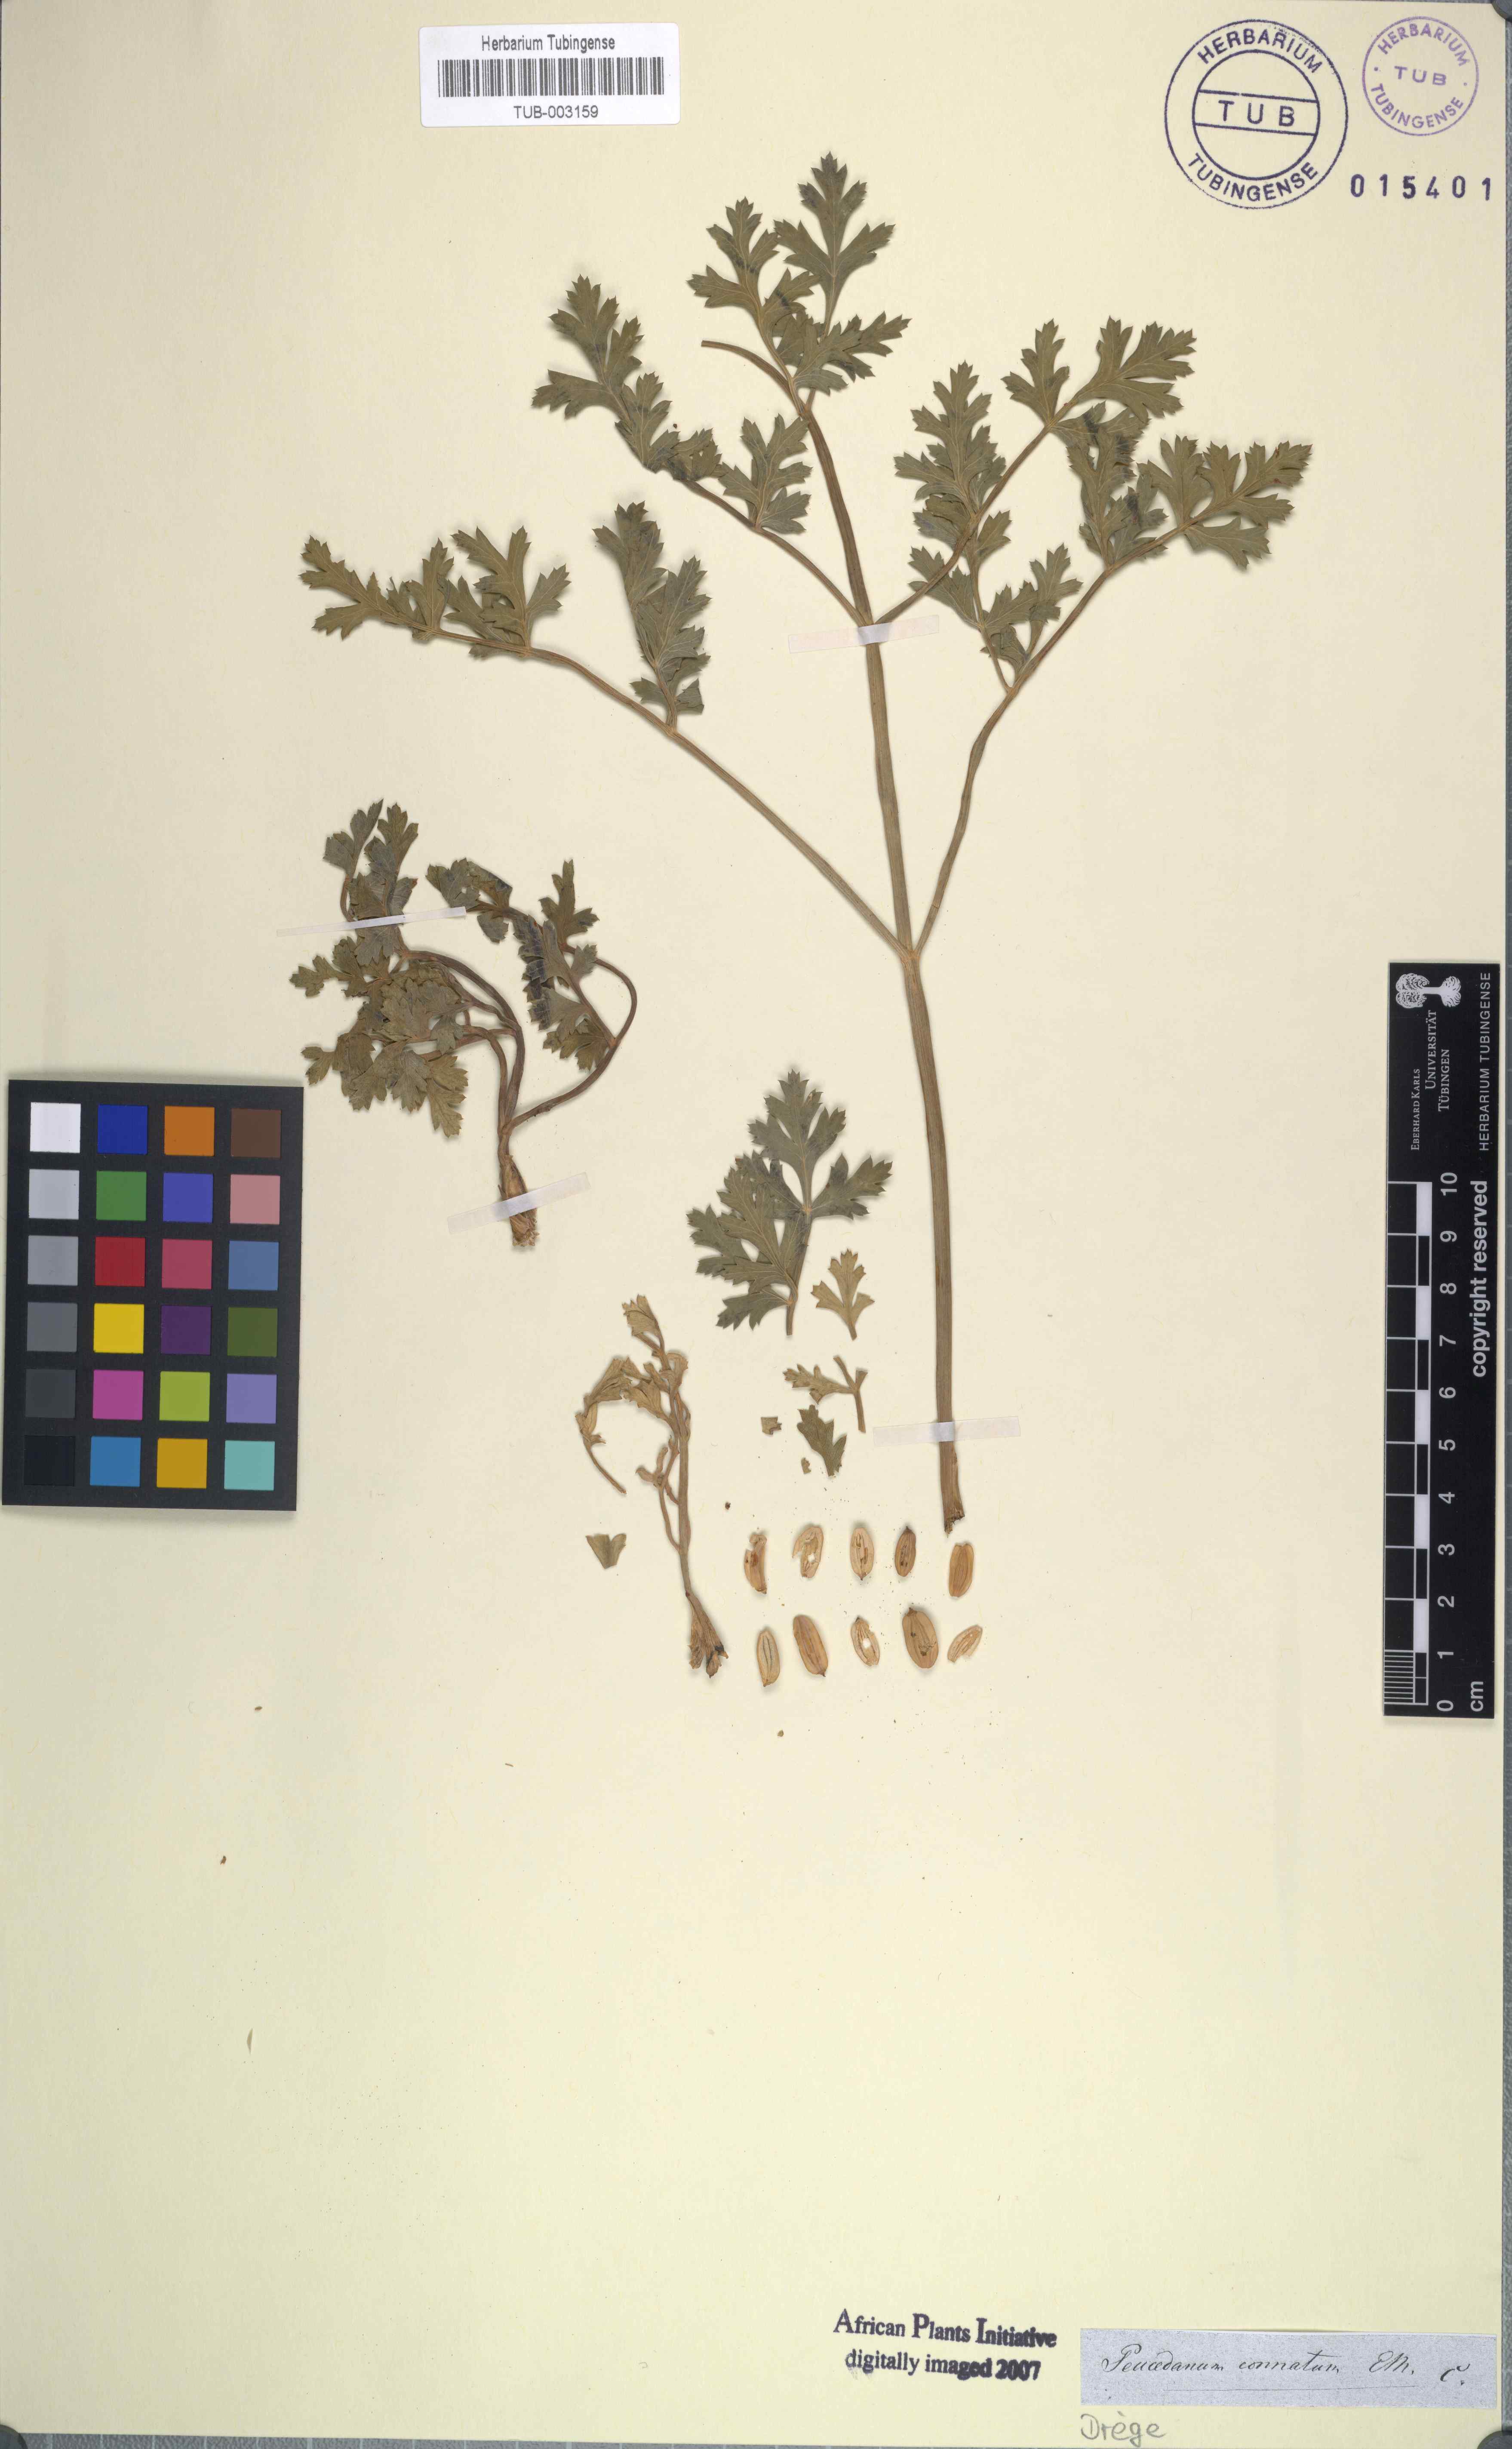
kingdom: Plantae
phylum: Tracheophyta
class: Magnoliopsida
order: Apiales
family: Apiaceae
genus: Afrosciadium
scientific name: Afrosciadium caffrum
